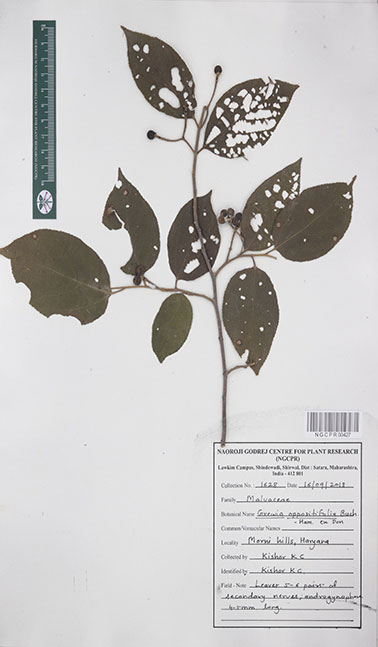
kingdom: Plantae
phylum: Tracheophyta
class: Magnoliopsida
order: Malvales
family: Malvaceae
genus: Grewia
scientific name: Grewia oppositifolia
